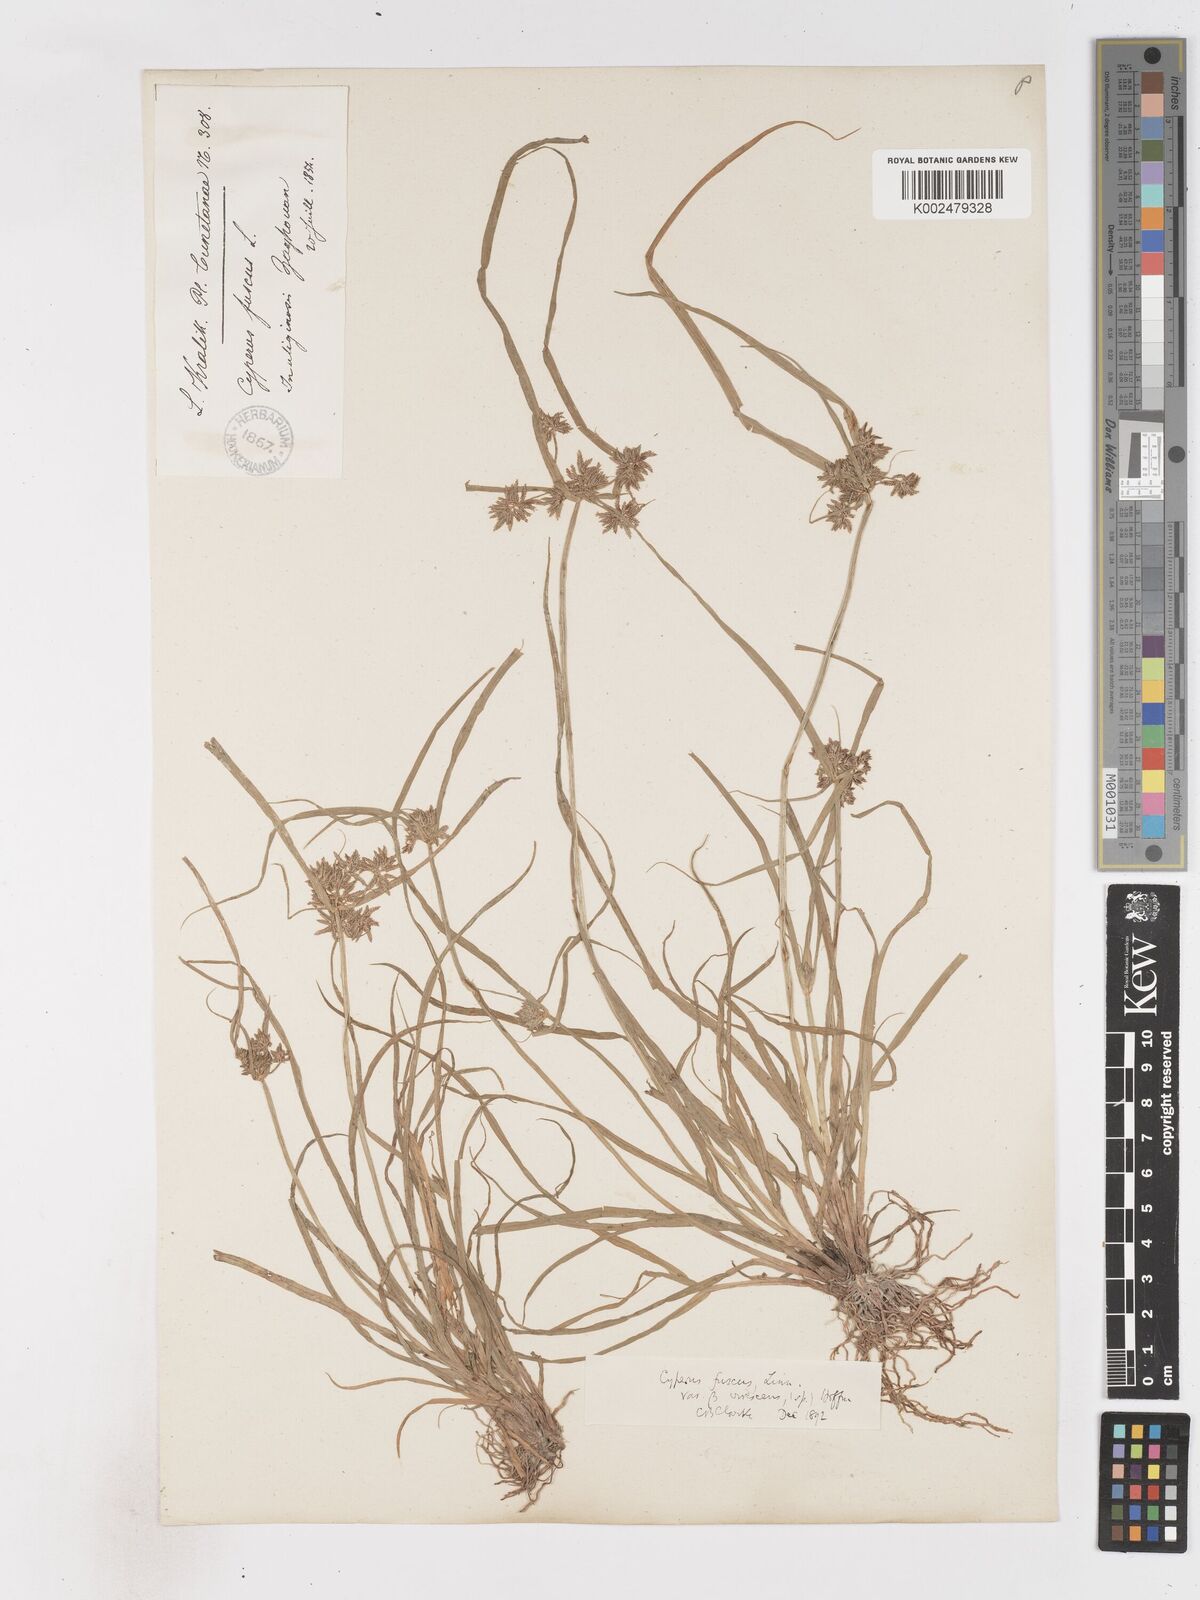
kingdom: Plantae
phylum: Tracheophyta
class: Liliopsida
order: Poales
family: Cyperaceae
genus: Cyperus
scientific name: Cyperus fuscus
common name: Brown galingale
